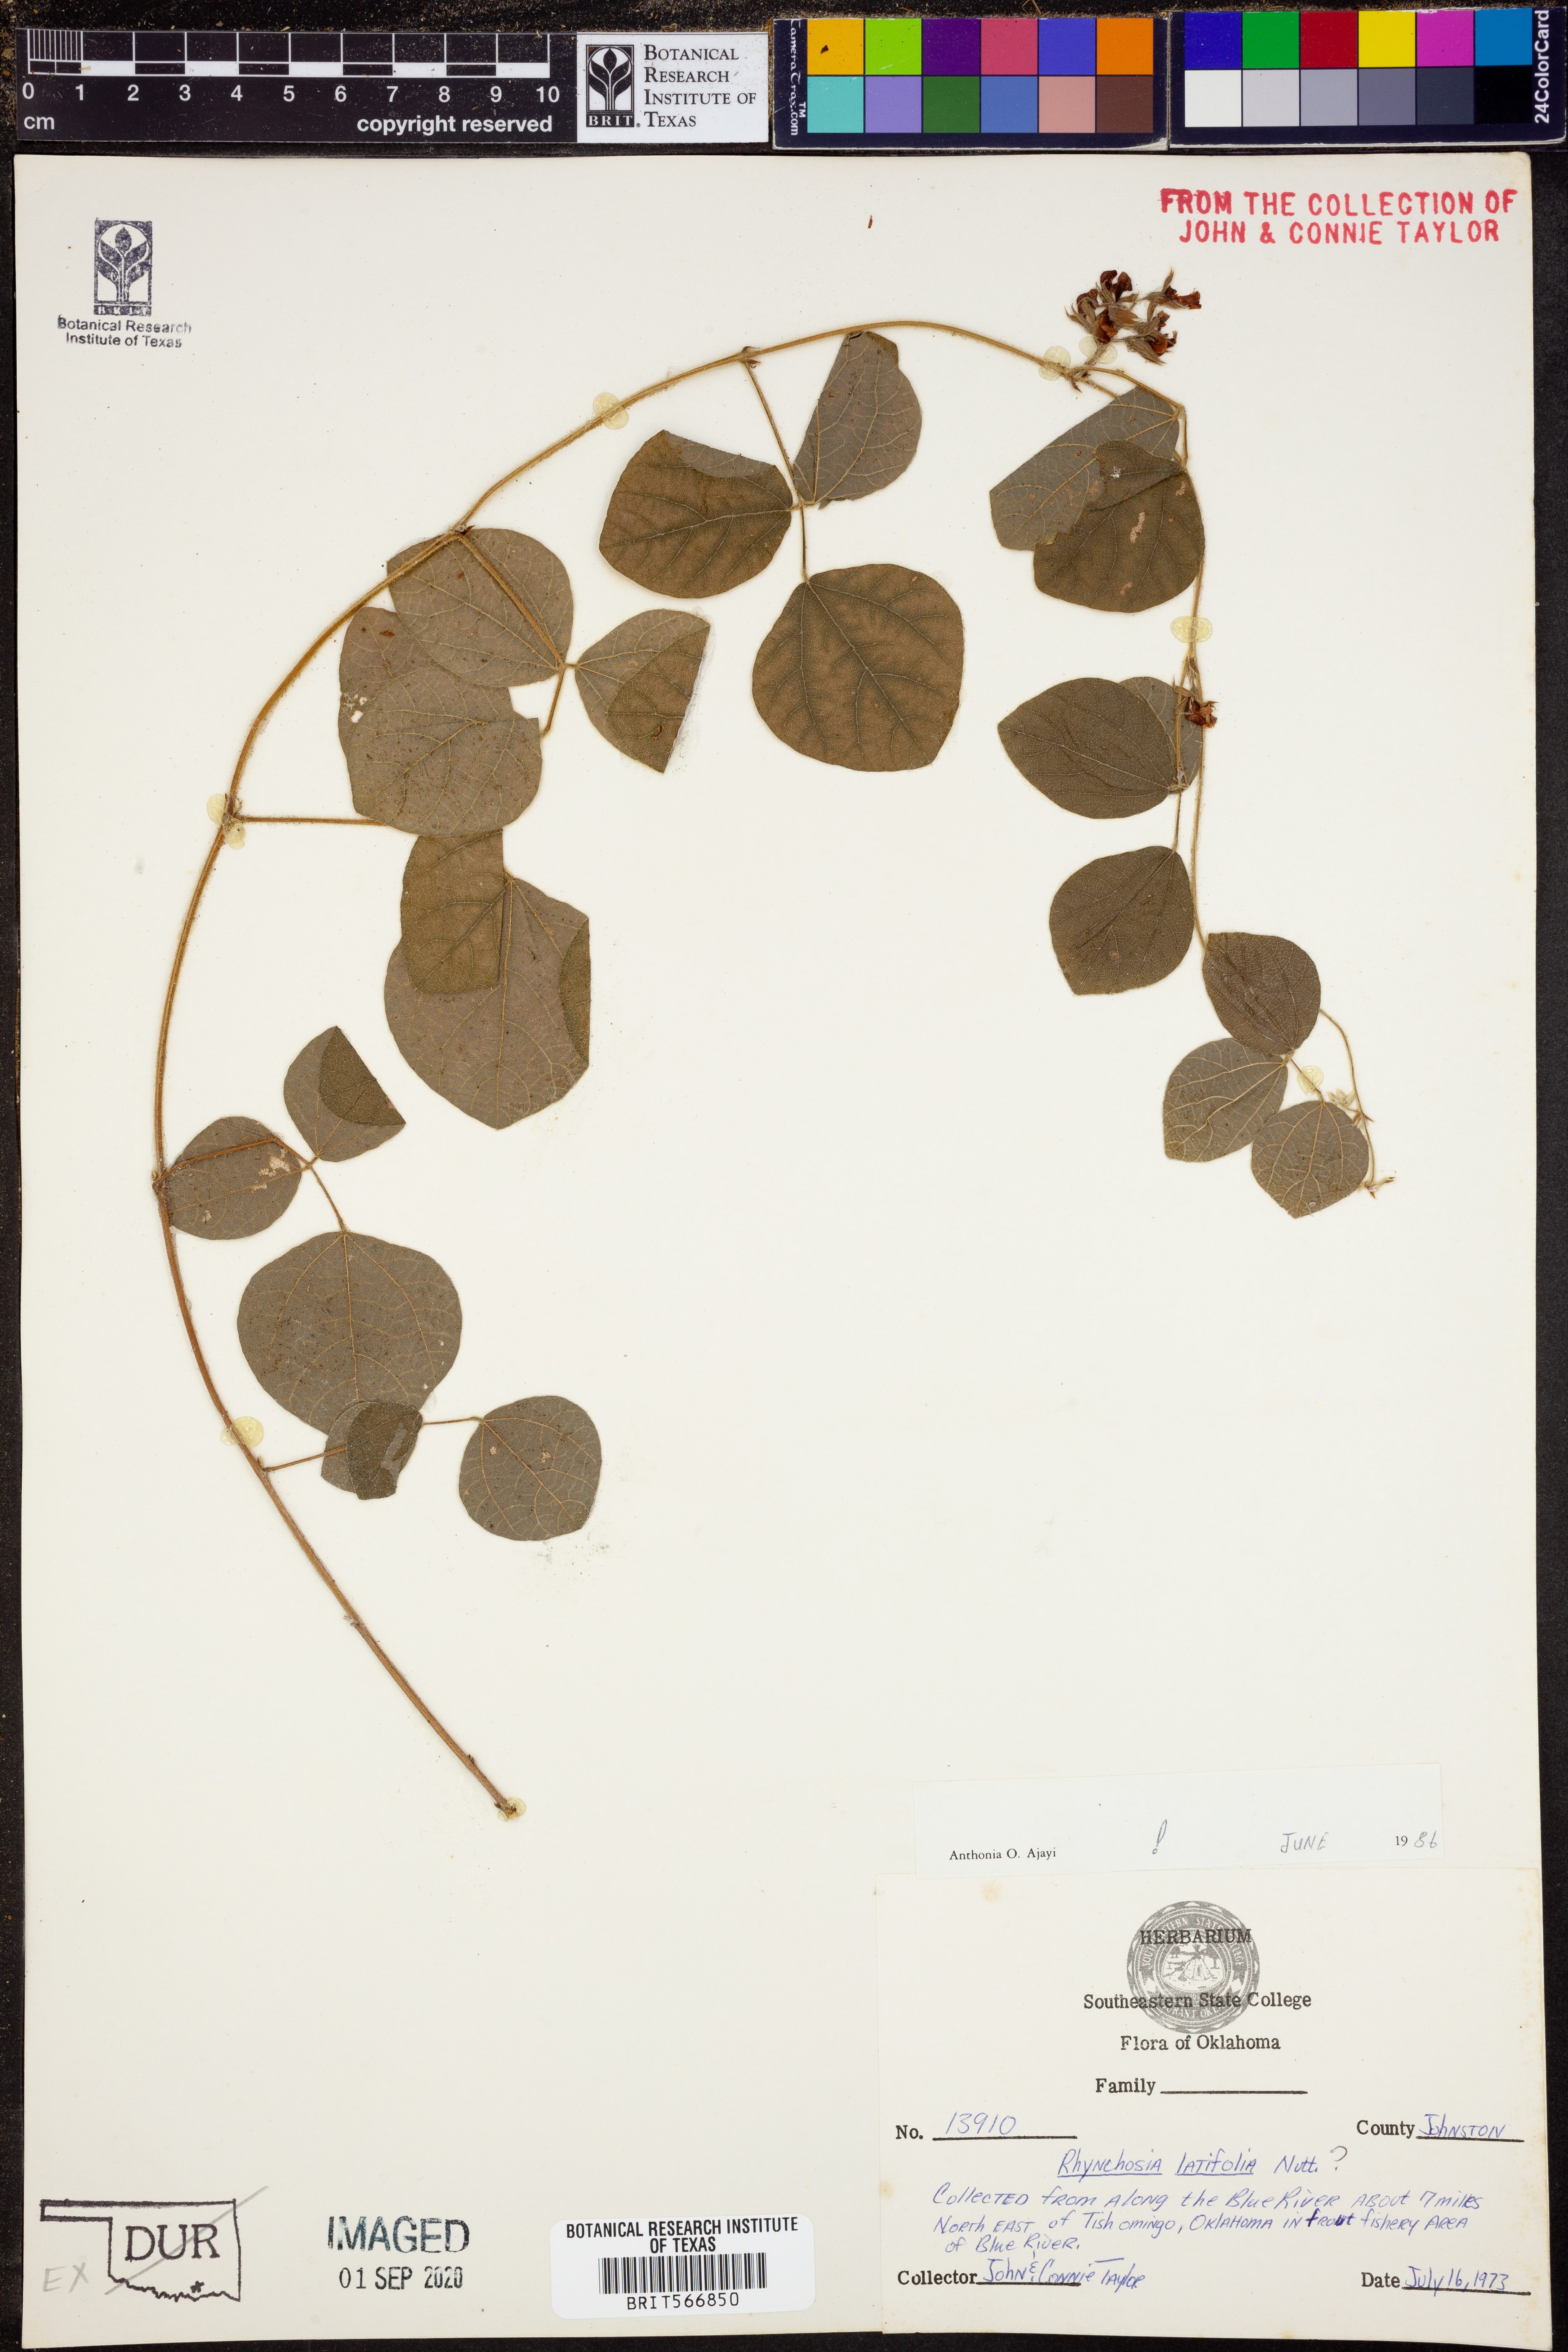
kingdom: Plantae
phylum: Tracheophyta
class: Magnoliopsida
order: Fabales
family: Fabaceae
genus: Rhynchosia
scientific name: Rhynchosia latifolia
